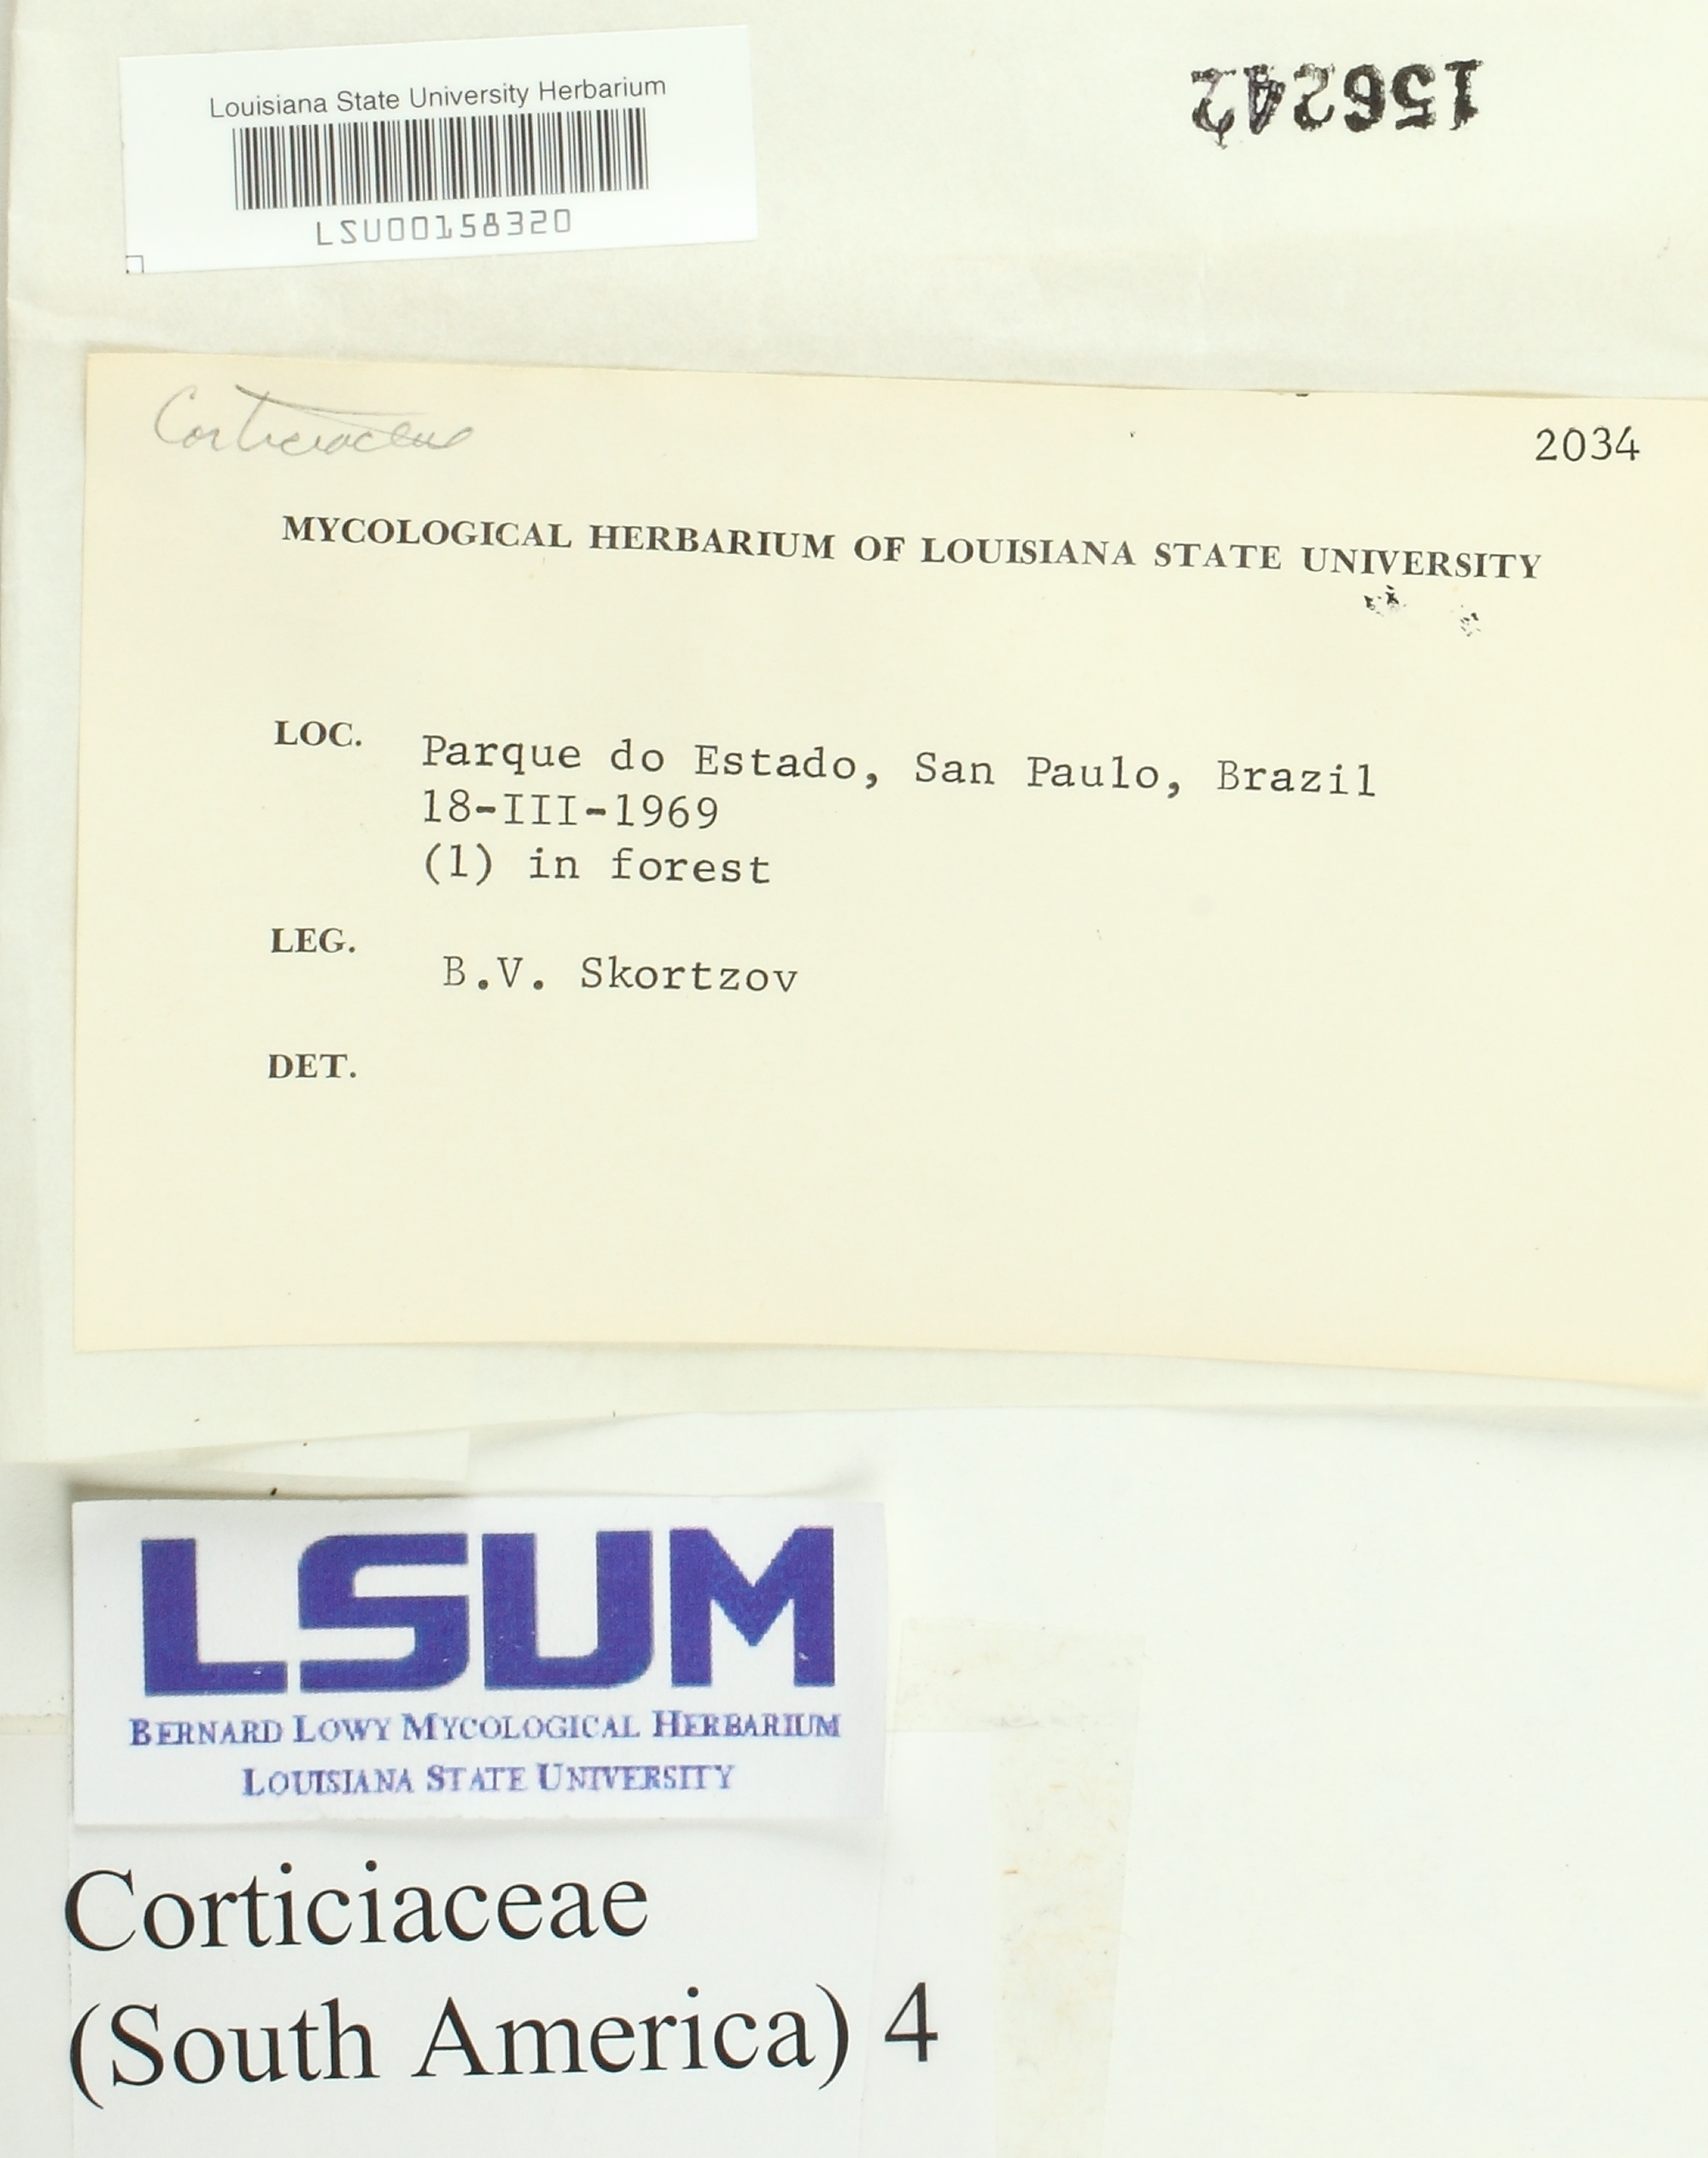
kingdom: Fungi
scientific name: Fungi
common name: Fungi
